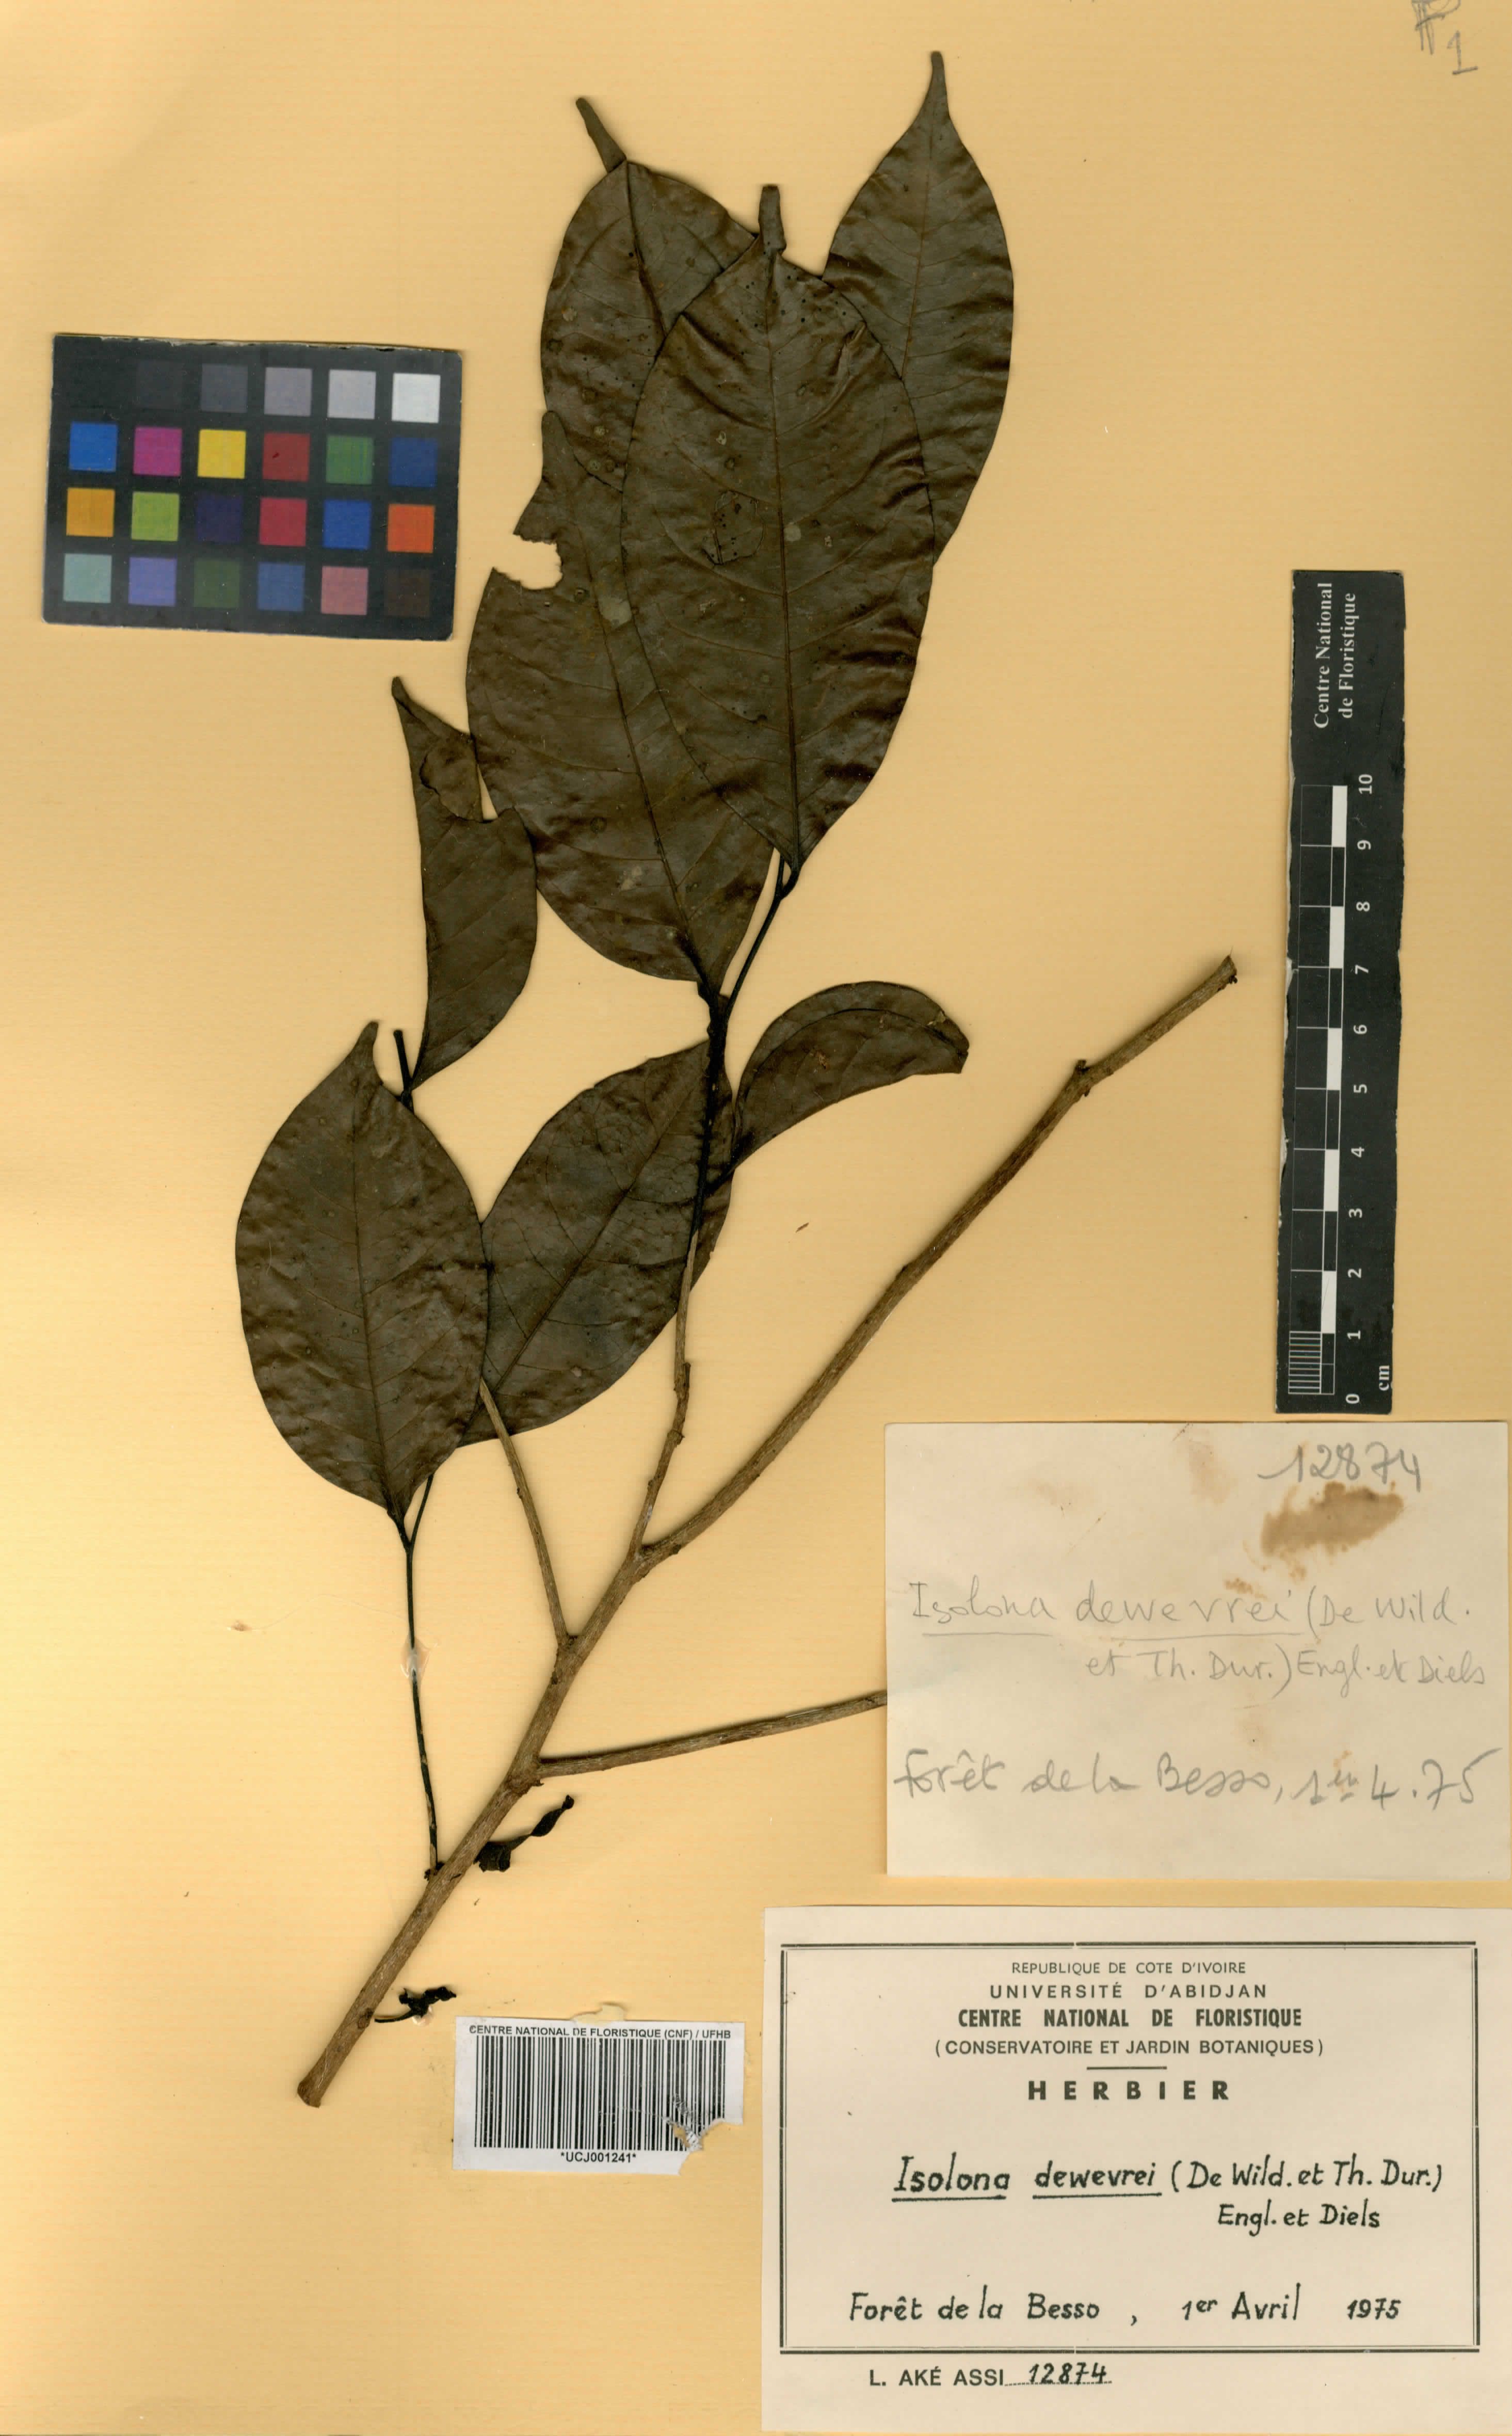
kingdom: Plantae
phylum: Tracheophyta
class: Magnoliopsida
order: Magnoliales
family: Annonaceae
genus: Isolona
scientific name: Isolona dewevrei
